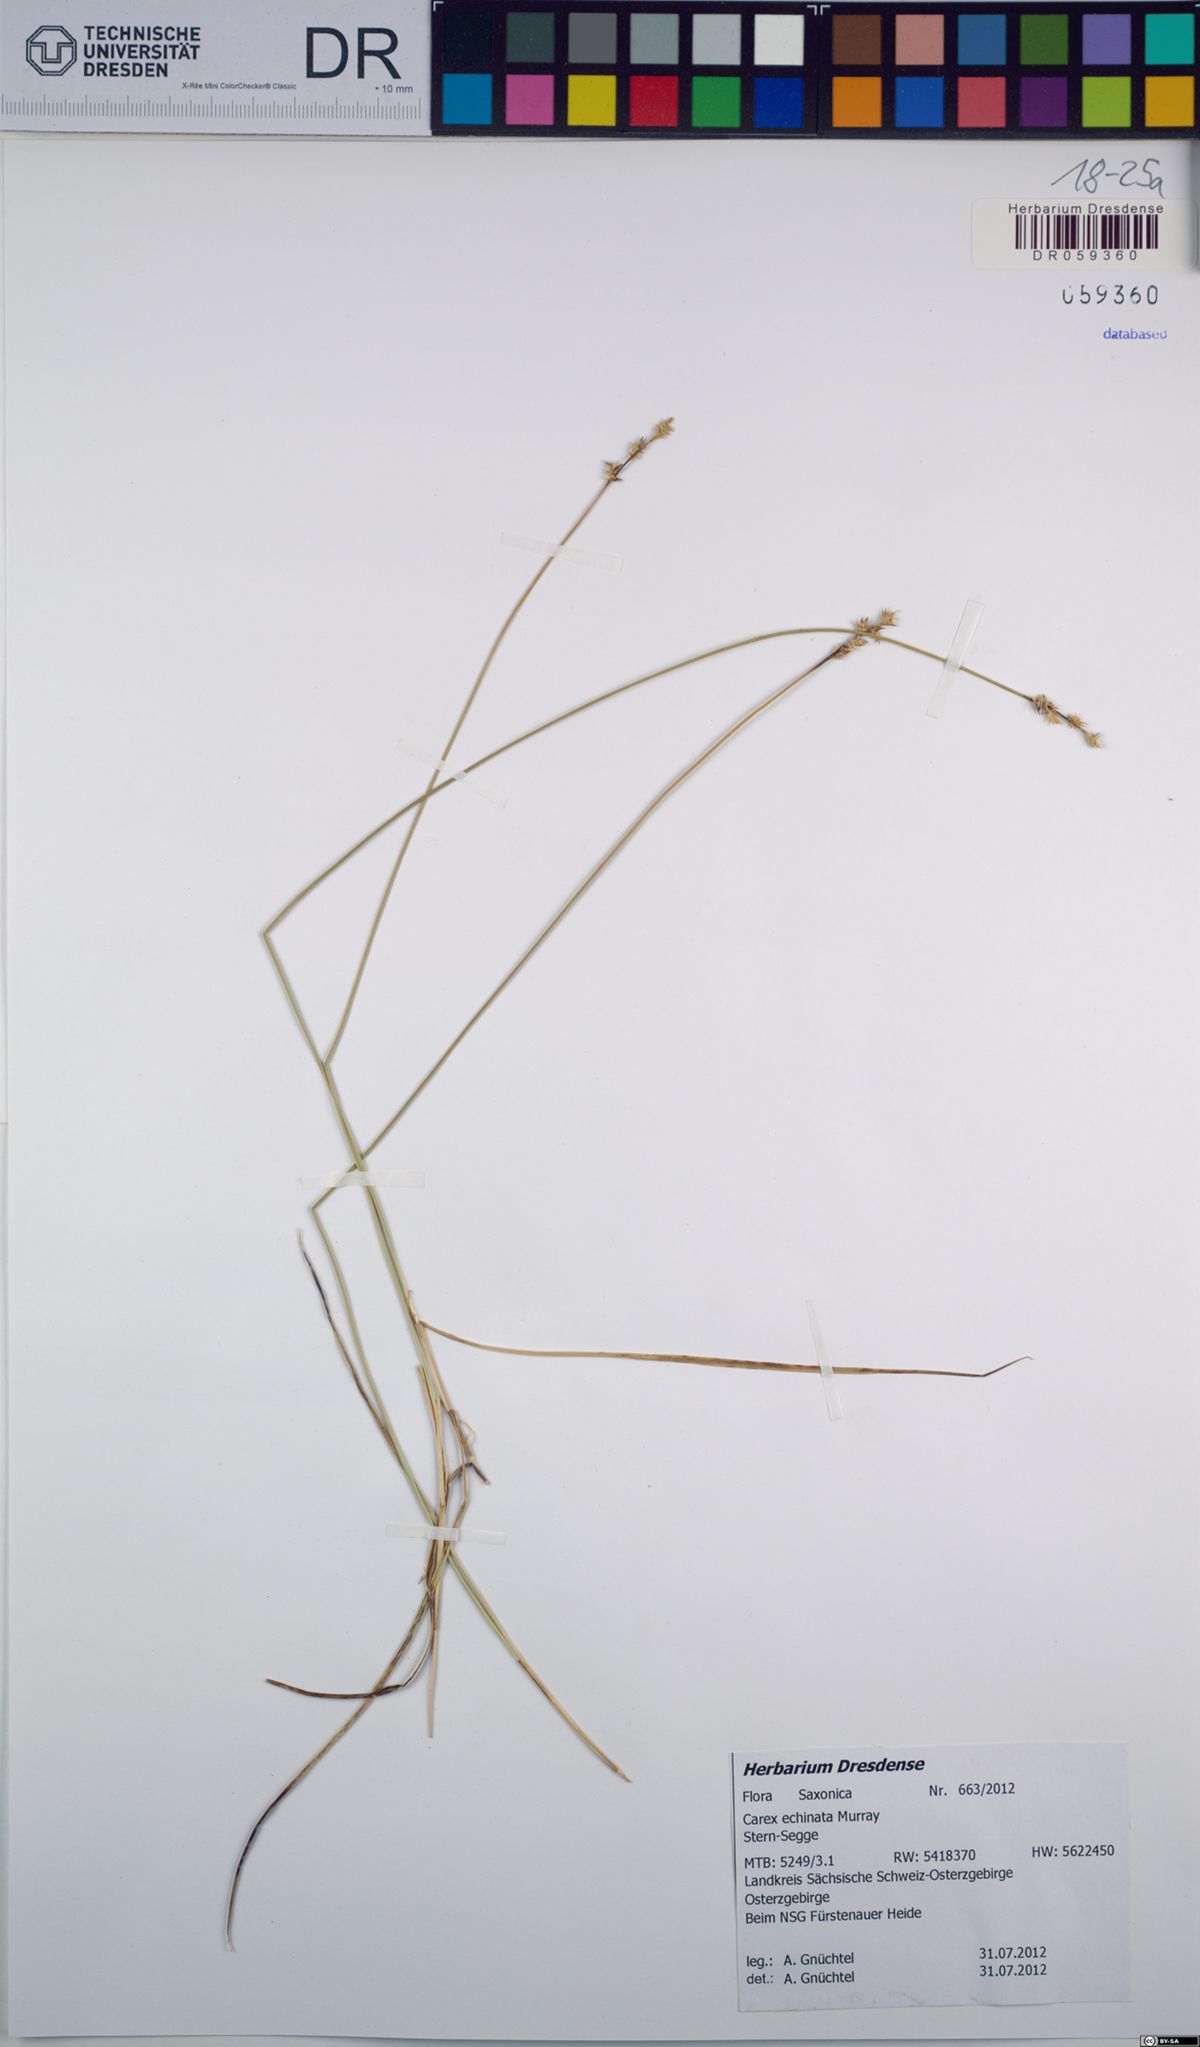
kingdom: Plantae
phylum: Tracheophyta
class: Liliopsida
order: Poales
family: Cyperaceae
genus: Carex
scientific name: Carex echinata
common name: Star sedge
